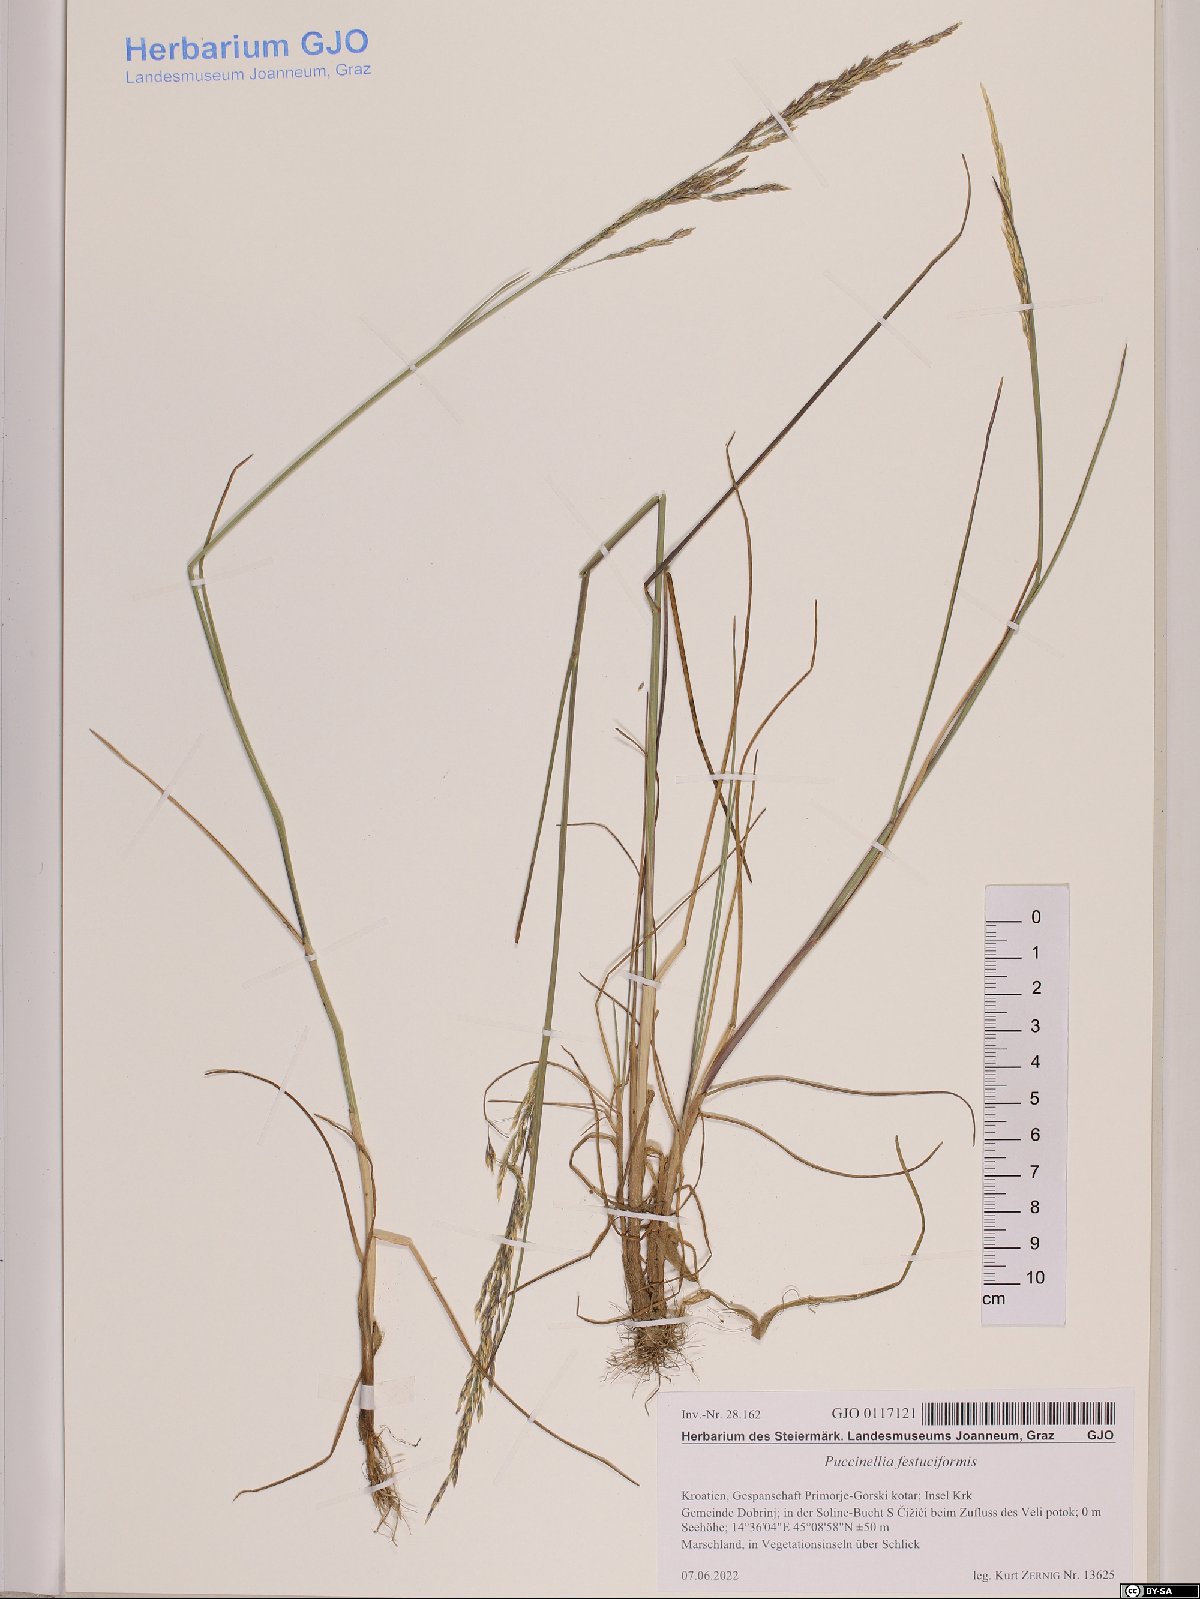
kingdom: Plantae
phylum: Tracheophyta
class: Liliopsida
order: Poales
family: Poaceae
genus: Puccinellia
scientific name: Puccinellia festuciformis
